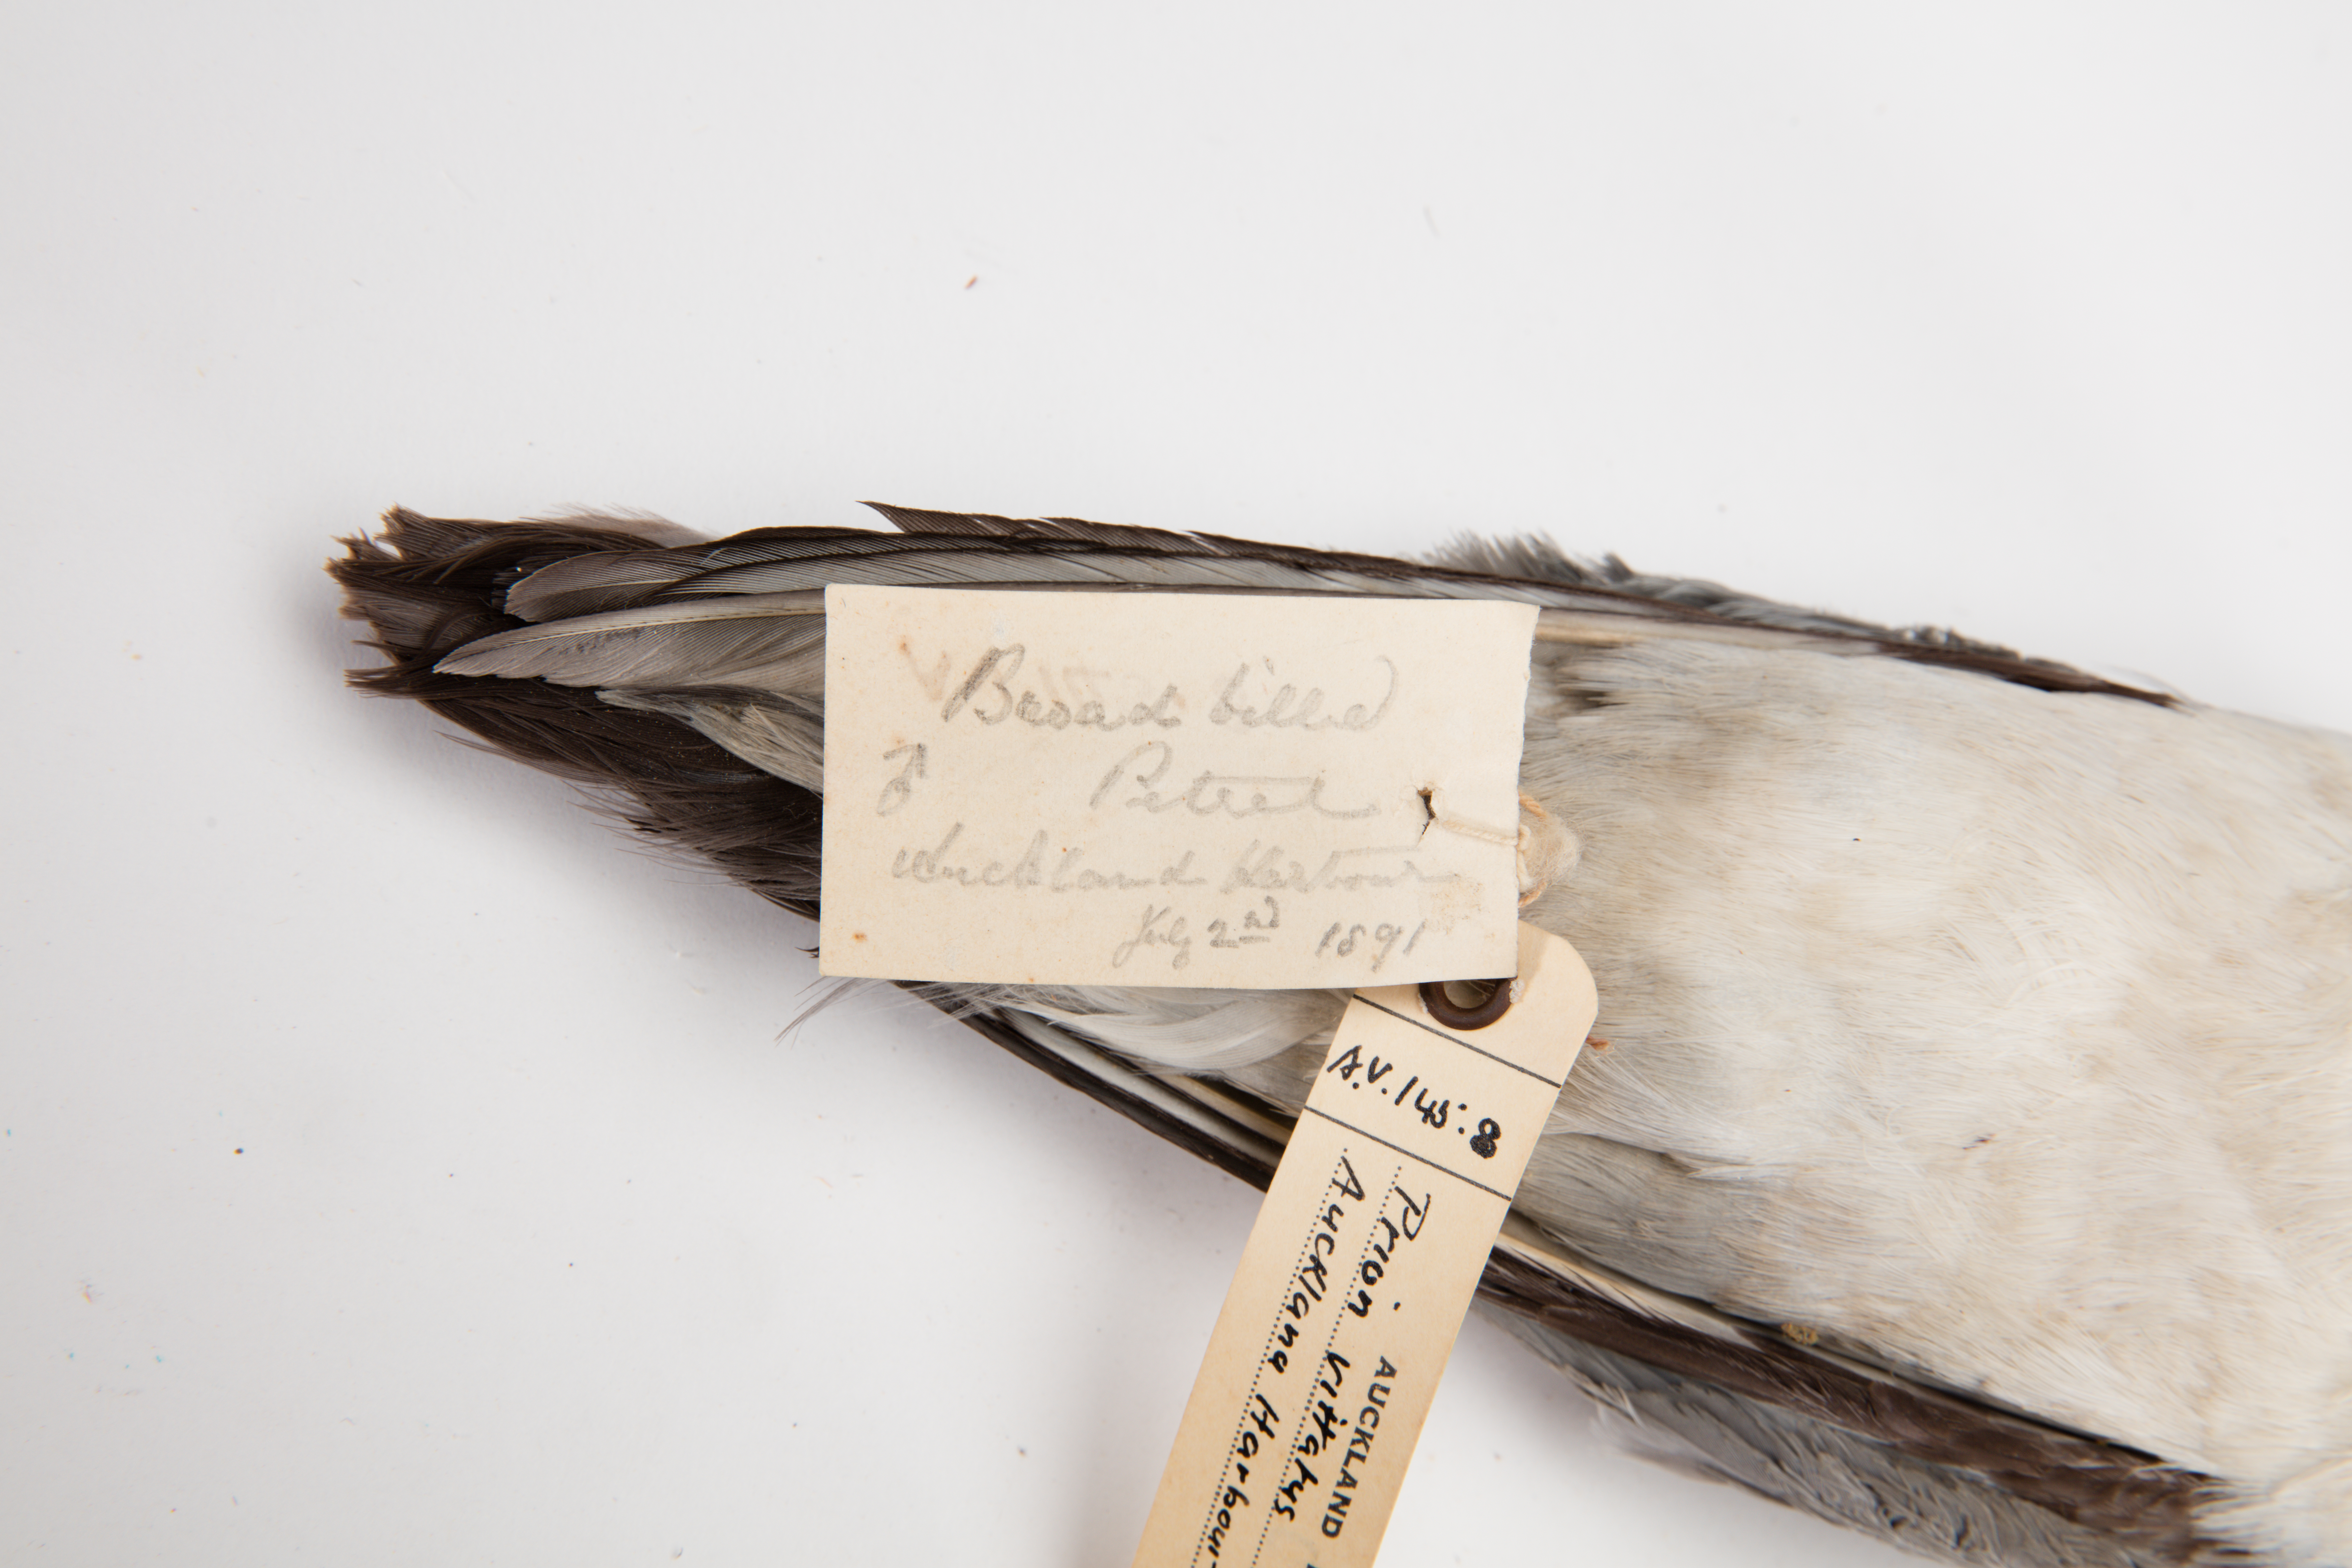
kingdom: Animalia
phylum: Chordata
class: Aves
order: Procellariiformes
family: Procellariidae
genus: Pachyptila
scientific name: Pachyptila vittata
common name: Broad-billed prion
